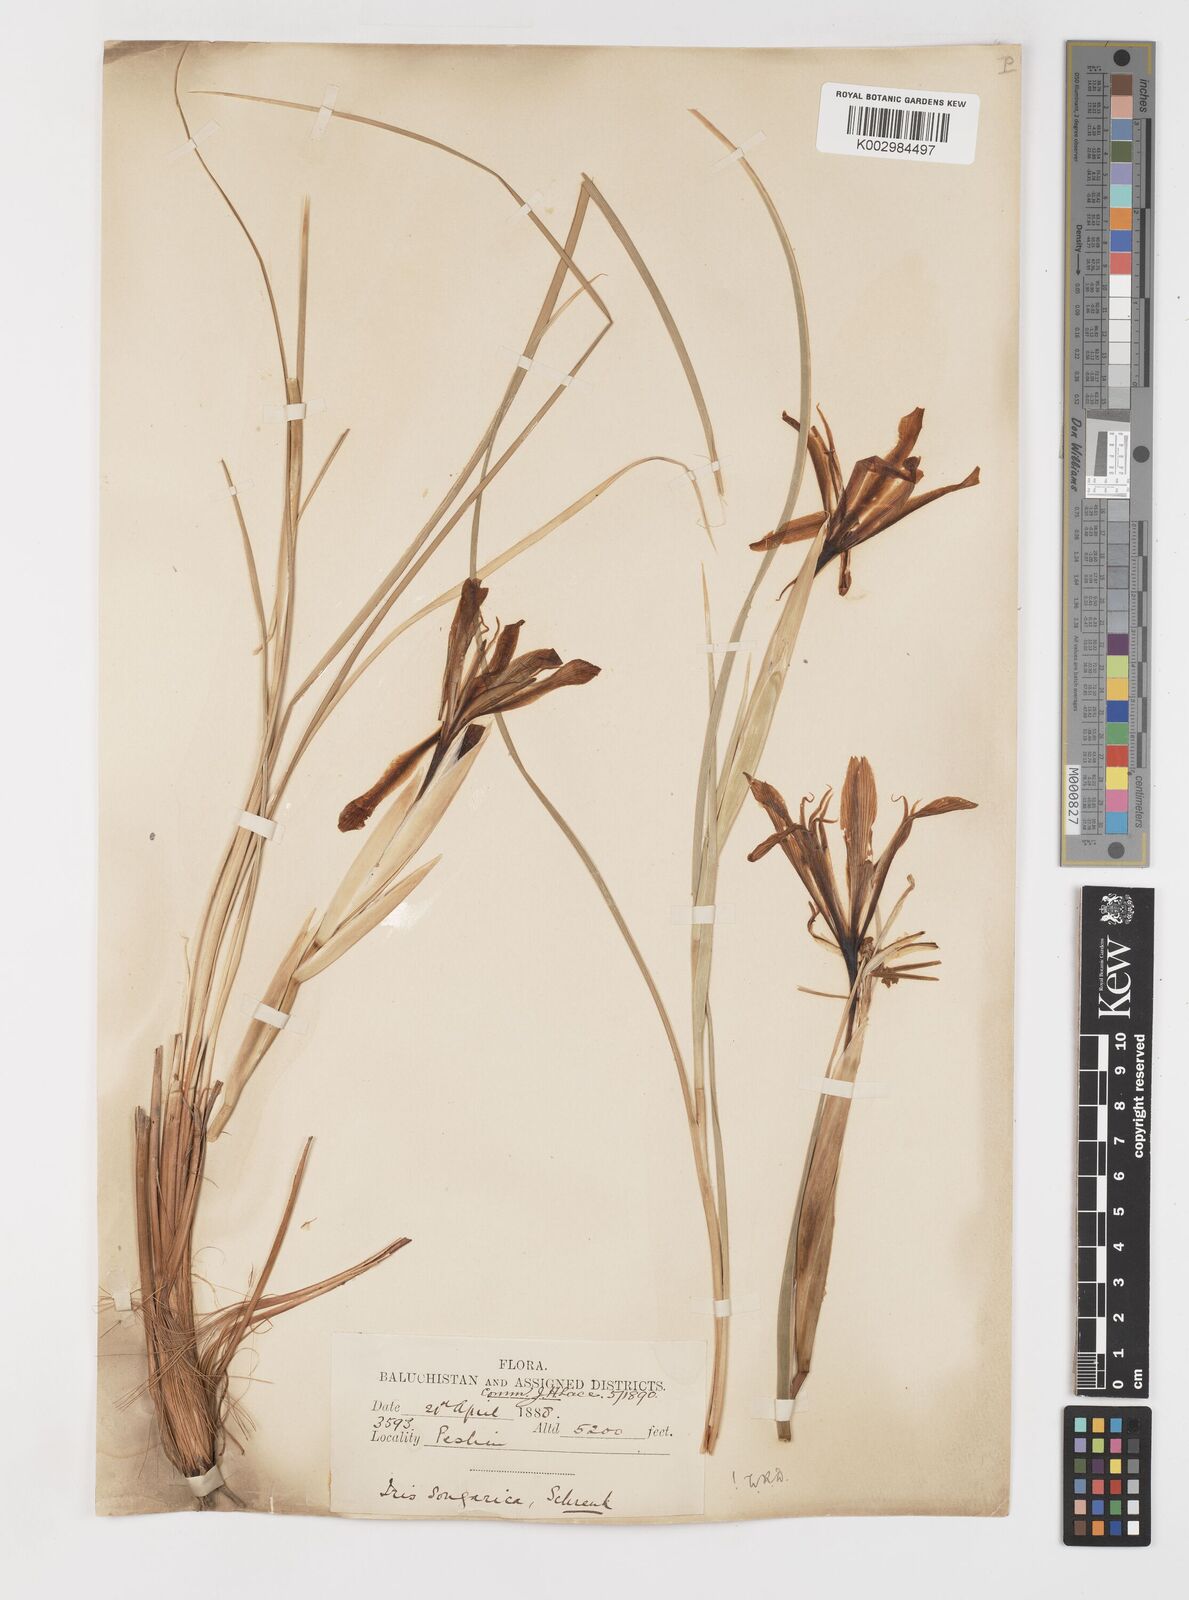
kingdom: Plantae
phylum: Tracheophyta
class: Liliopsida
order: Asparagales
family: Iridaceae
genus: Iris
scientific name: Iris songarica
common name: Songar iris
